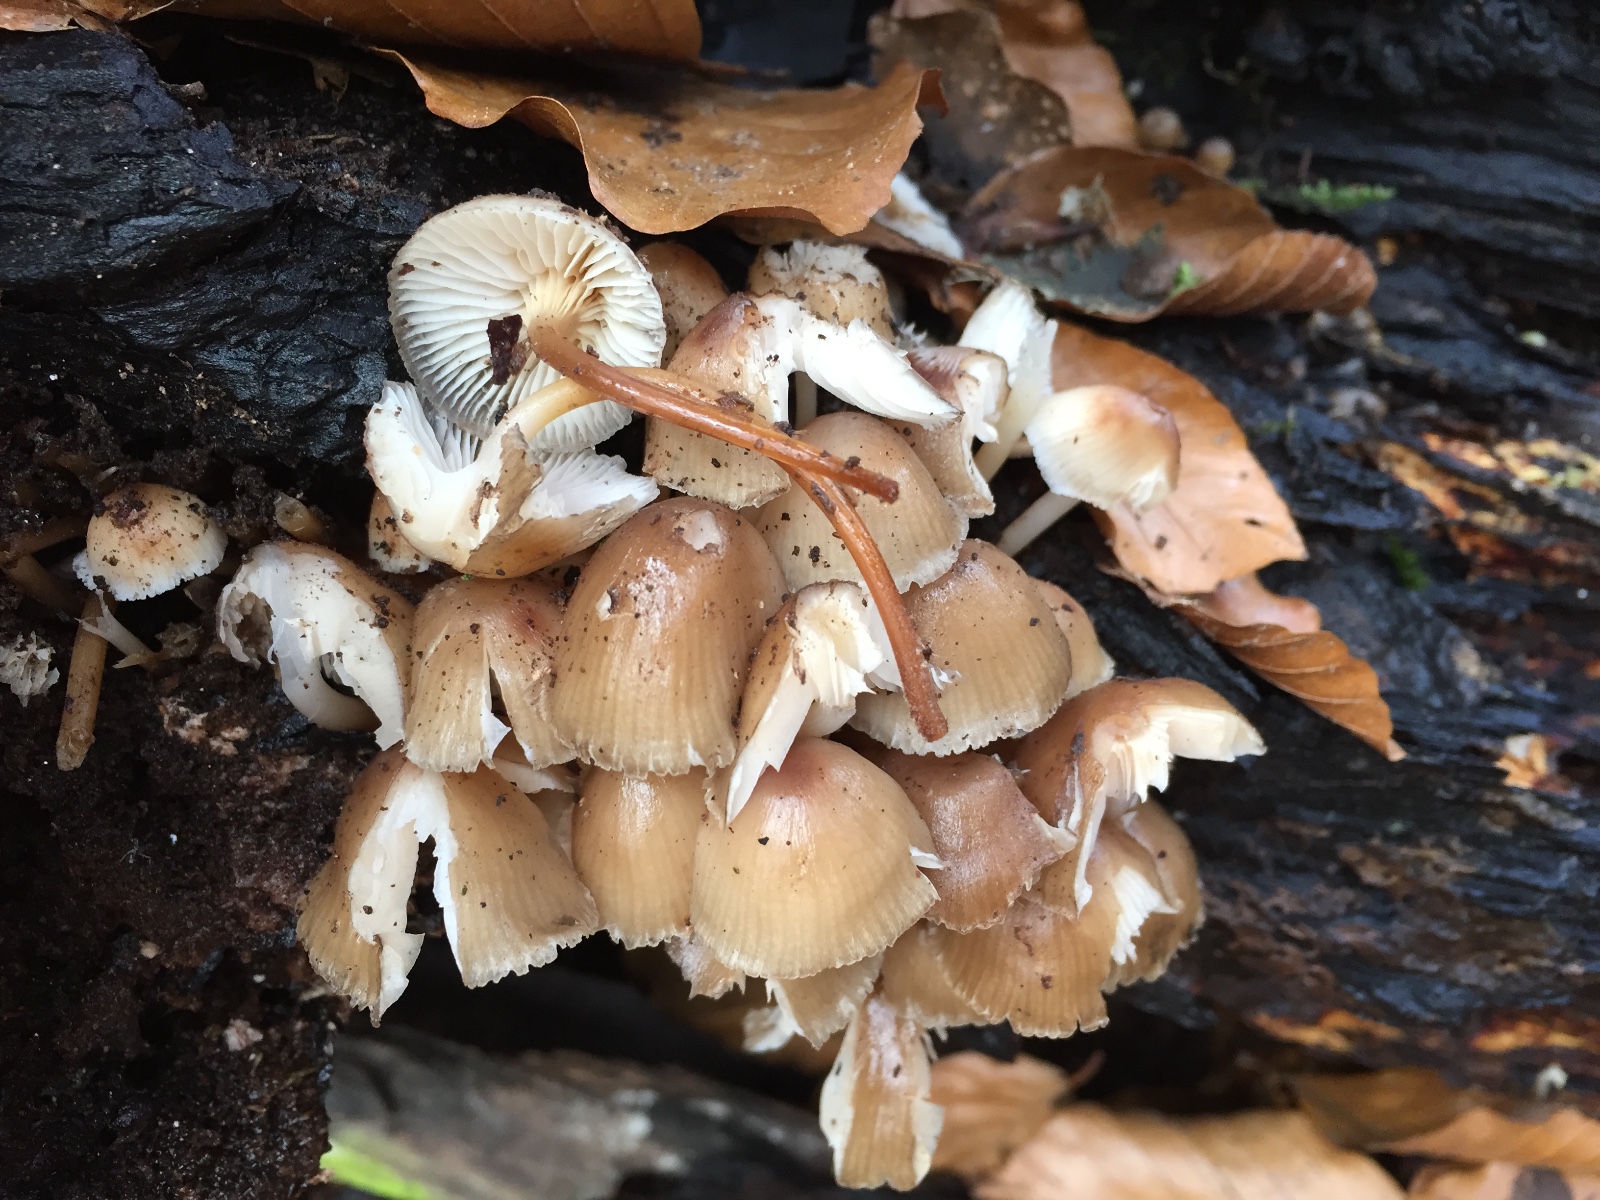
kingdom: Fungi
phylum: Basidiomycota
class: Agaricomycetes
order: Agaricales
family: Mycenaceae
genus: Mycena
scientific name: Mycena tintinnabulum
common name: vinter-huesvamp
